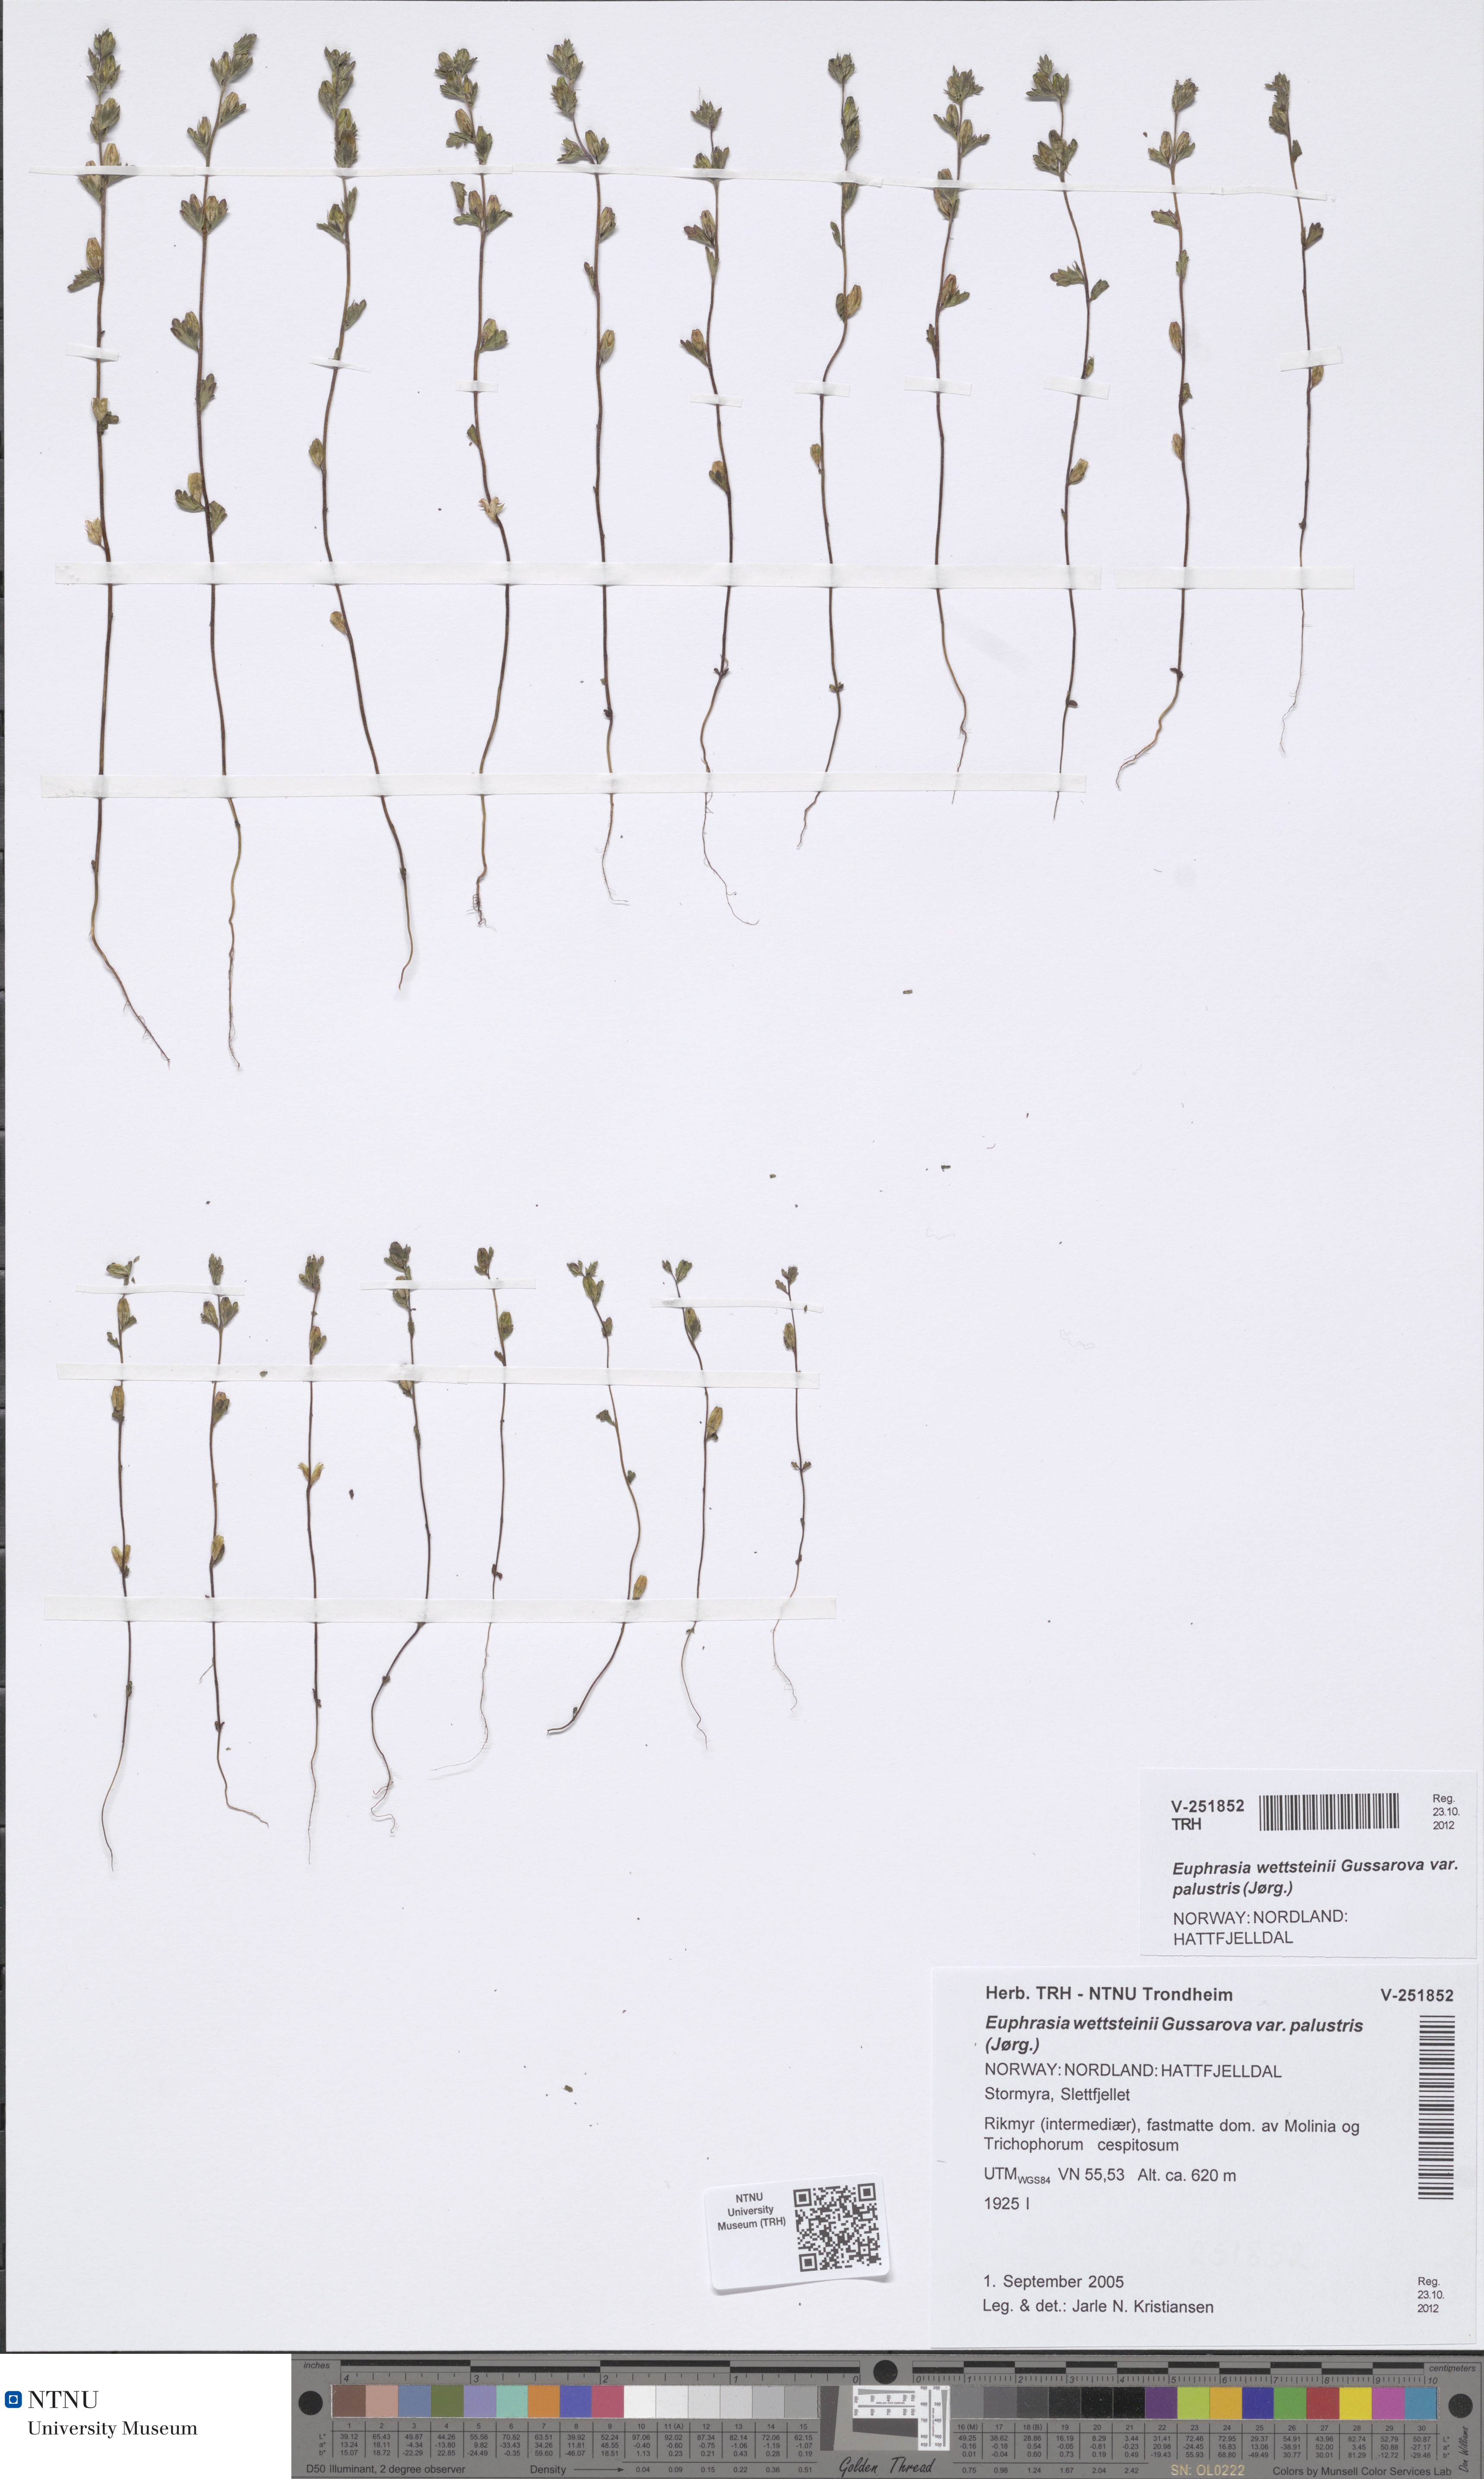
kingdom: Plantae
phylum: Tracheophyta
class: Magnoliopsida
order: Lamiales
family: Orobanchaceae
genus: Euphrasia
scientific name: Euphrasia wettsteinii
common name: Wettstein's eyebright
